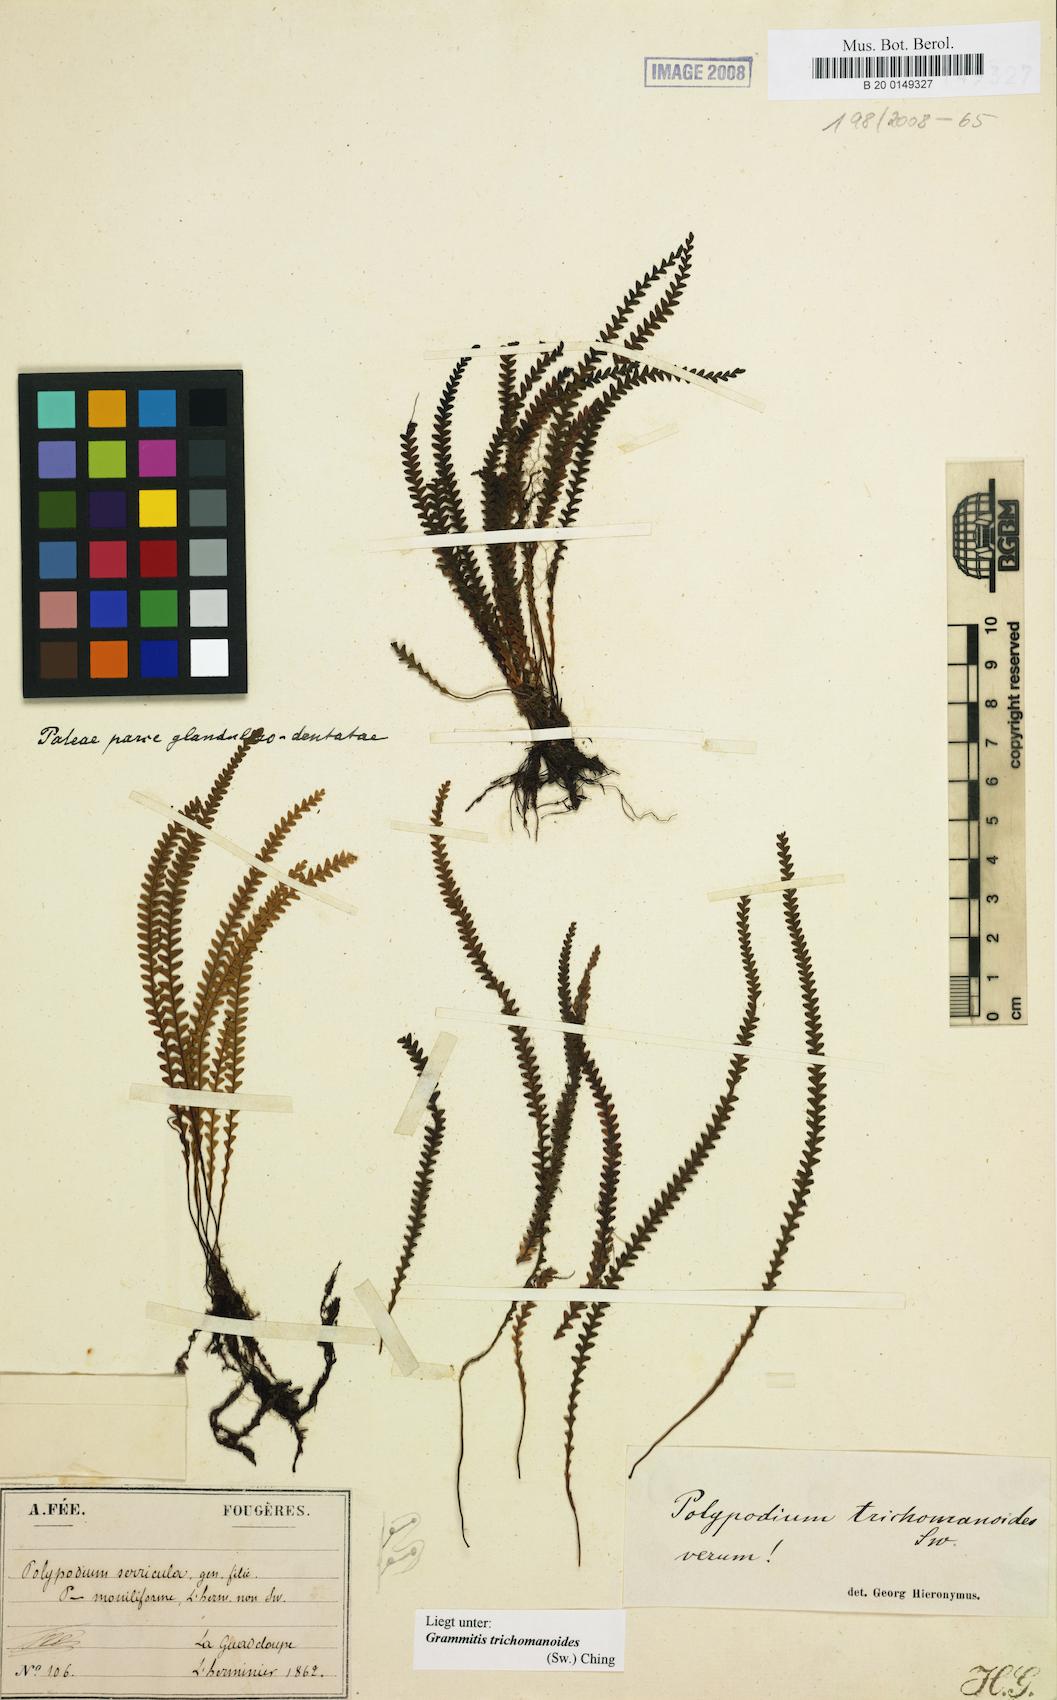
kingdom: Plantae
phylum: Tracheophyta
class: Polypodiopsida
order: Polypodiales
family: Polypodiaceae
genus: Moranopteris
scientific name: Moranopteris serricula
